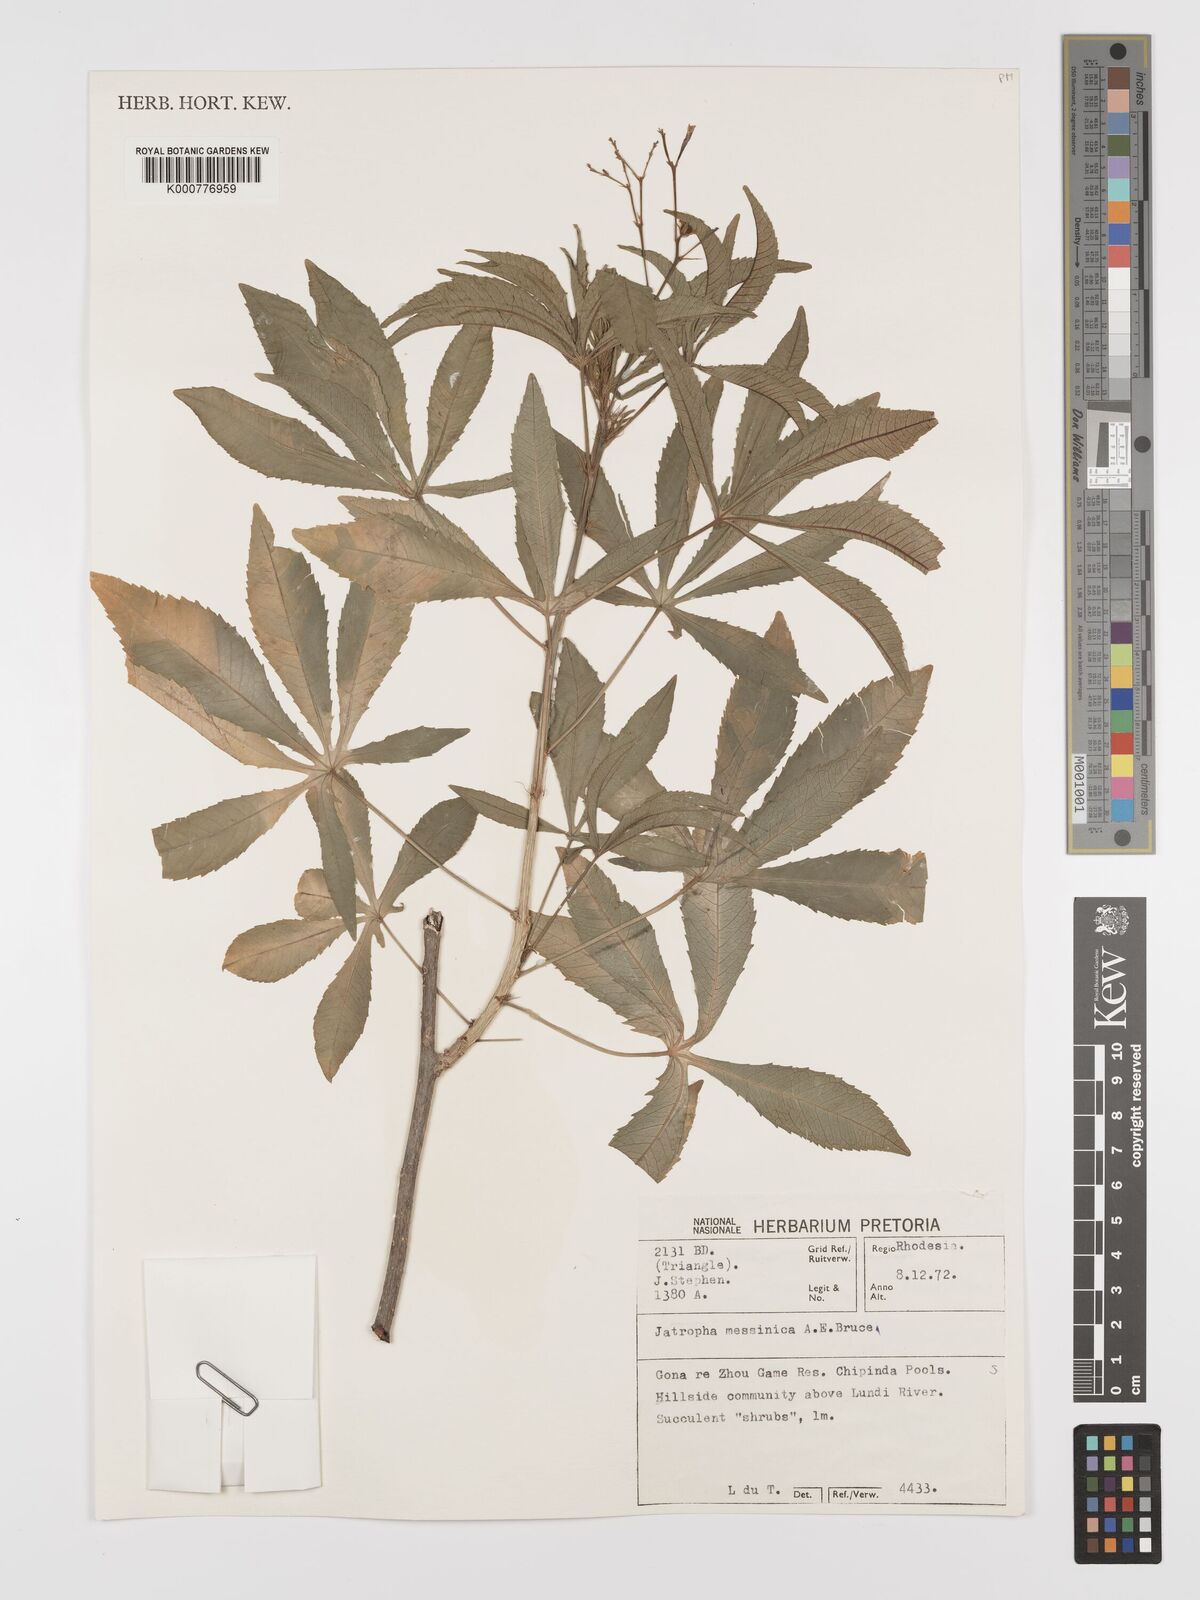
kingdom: Plantae
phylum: Tracheophyta
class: Magnoliopsida
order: Malpighiales
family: Euphorbiaceae
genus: Jatropha
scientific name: Jatropha spicata
